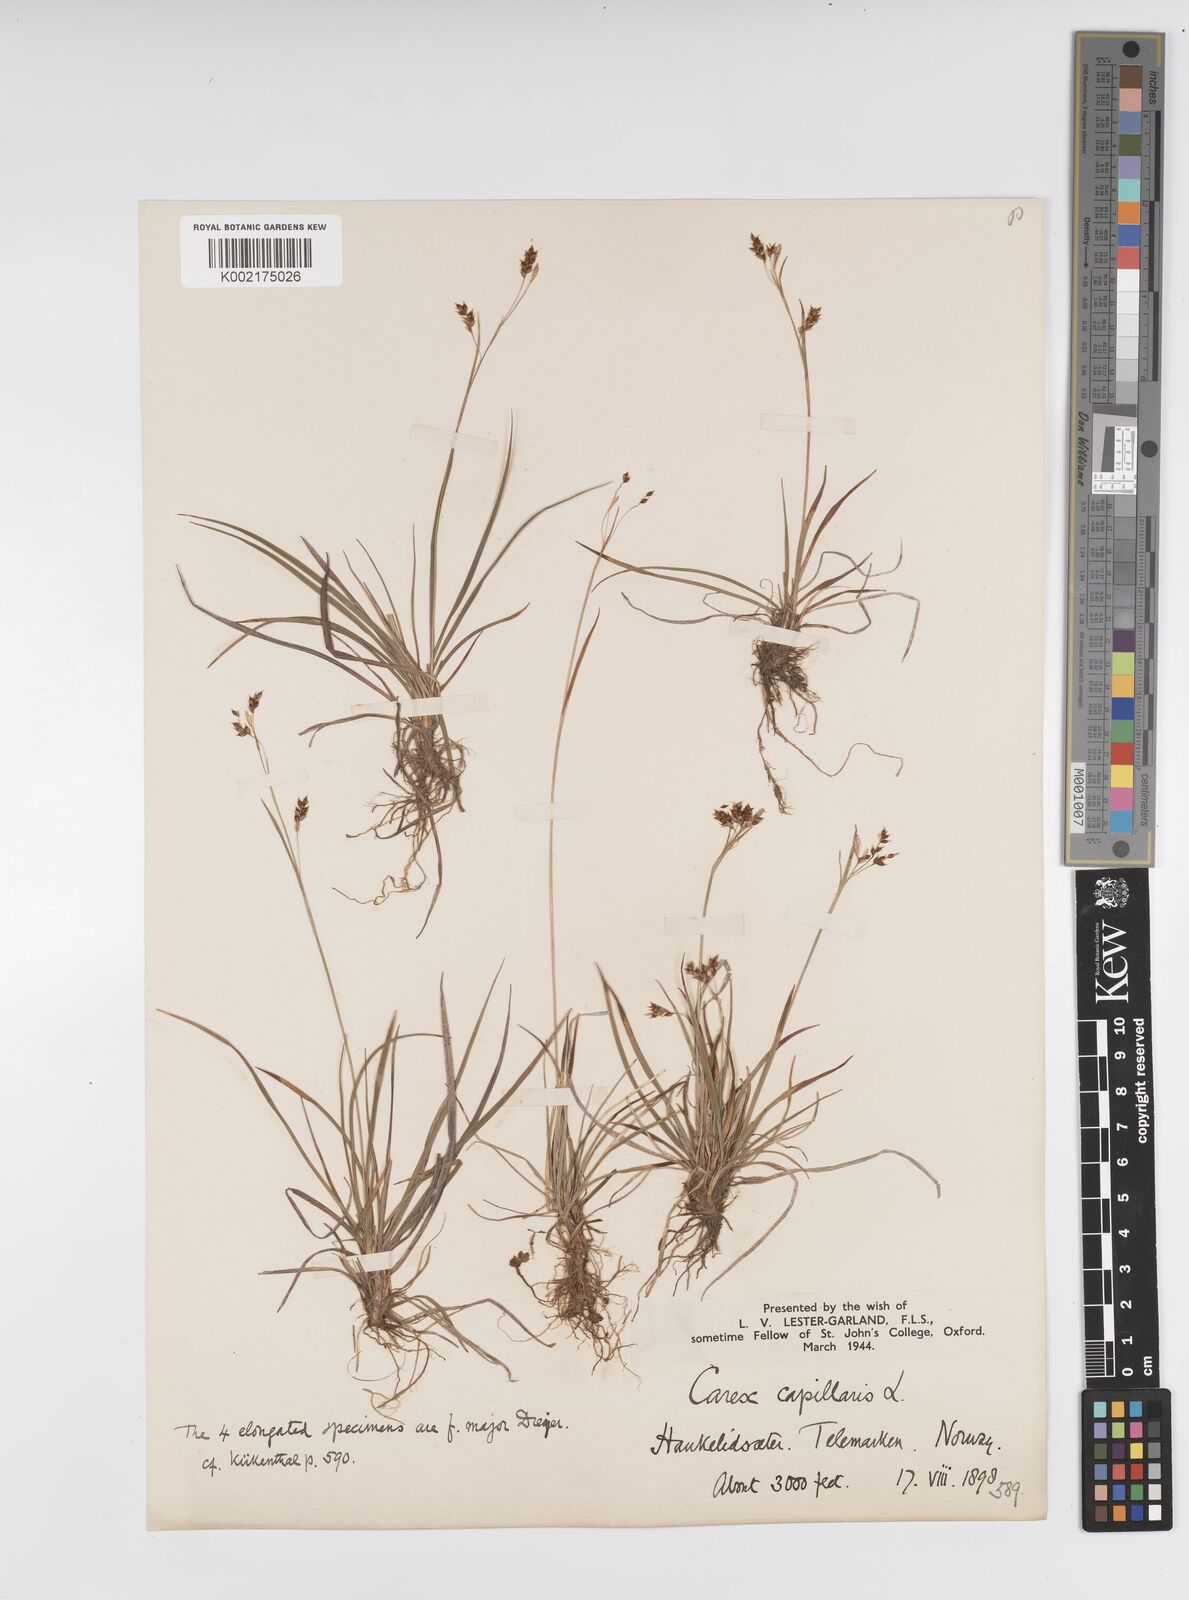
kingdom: Plantae
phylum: Tracheophyta
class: Liliopsida
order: Poales
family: Cyperaceae
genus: Carex
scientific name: Carex capillaris
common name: Hair sedge
